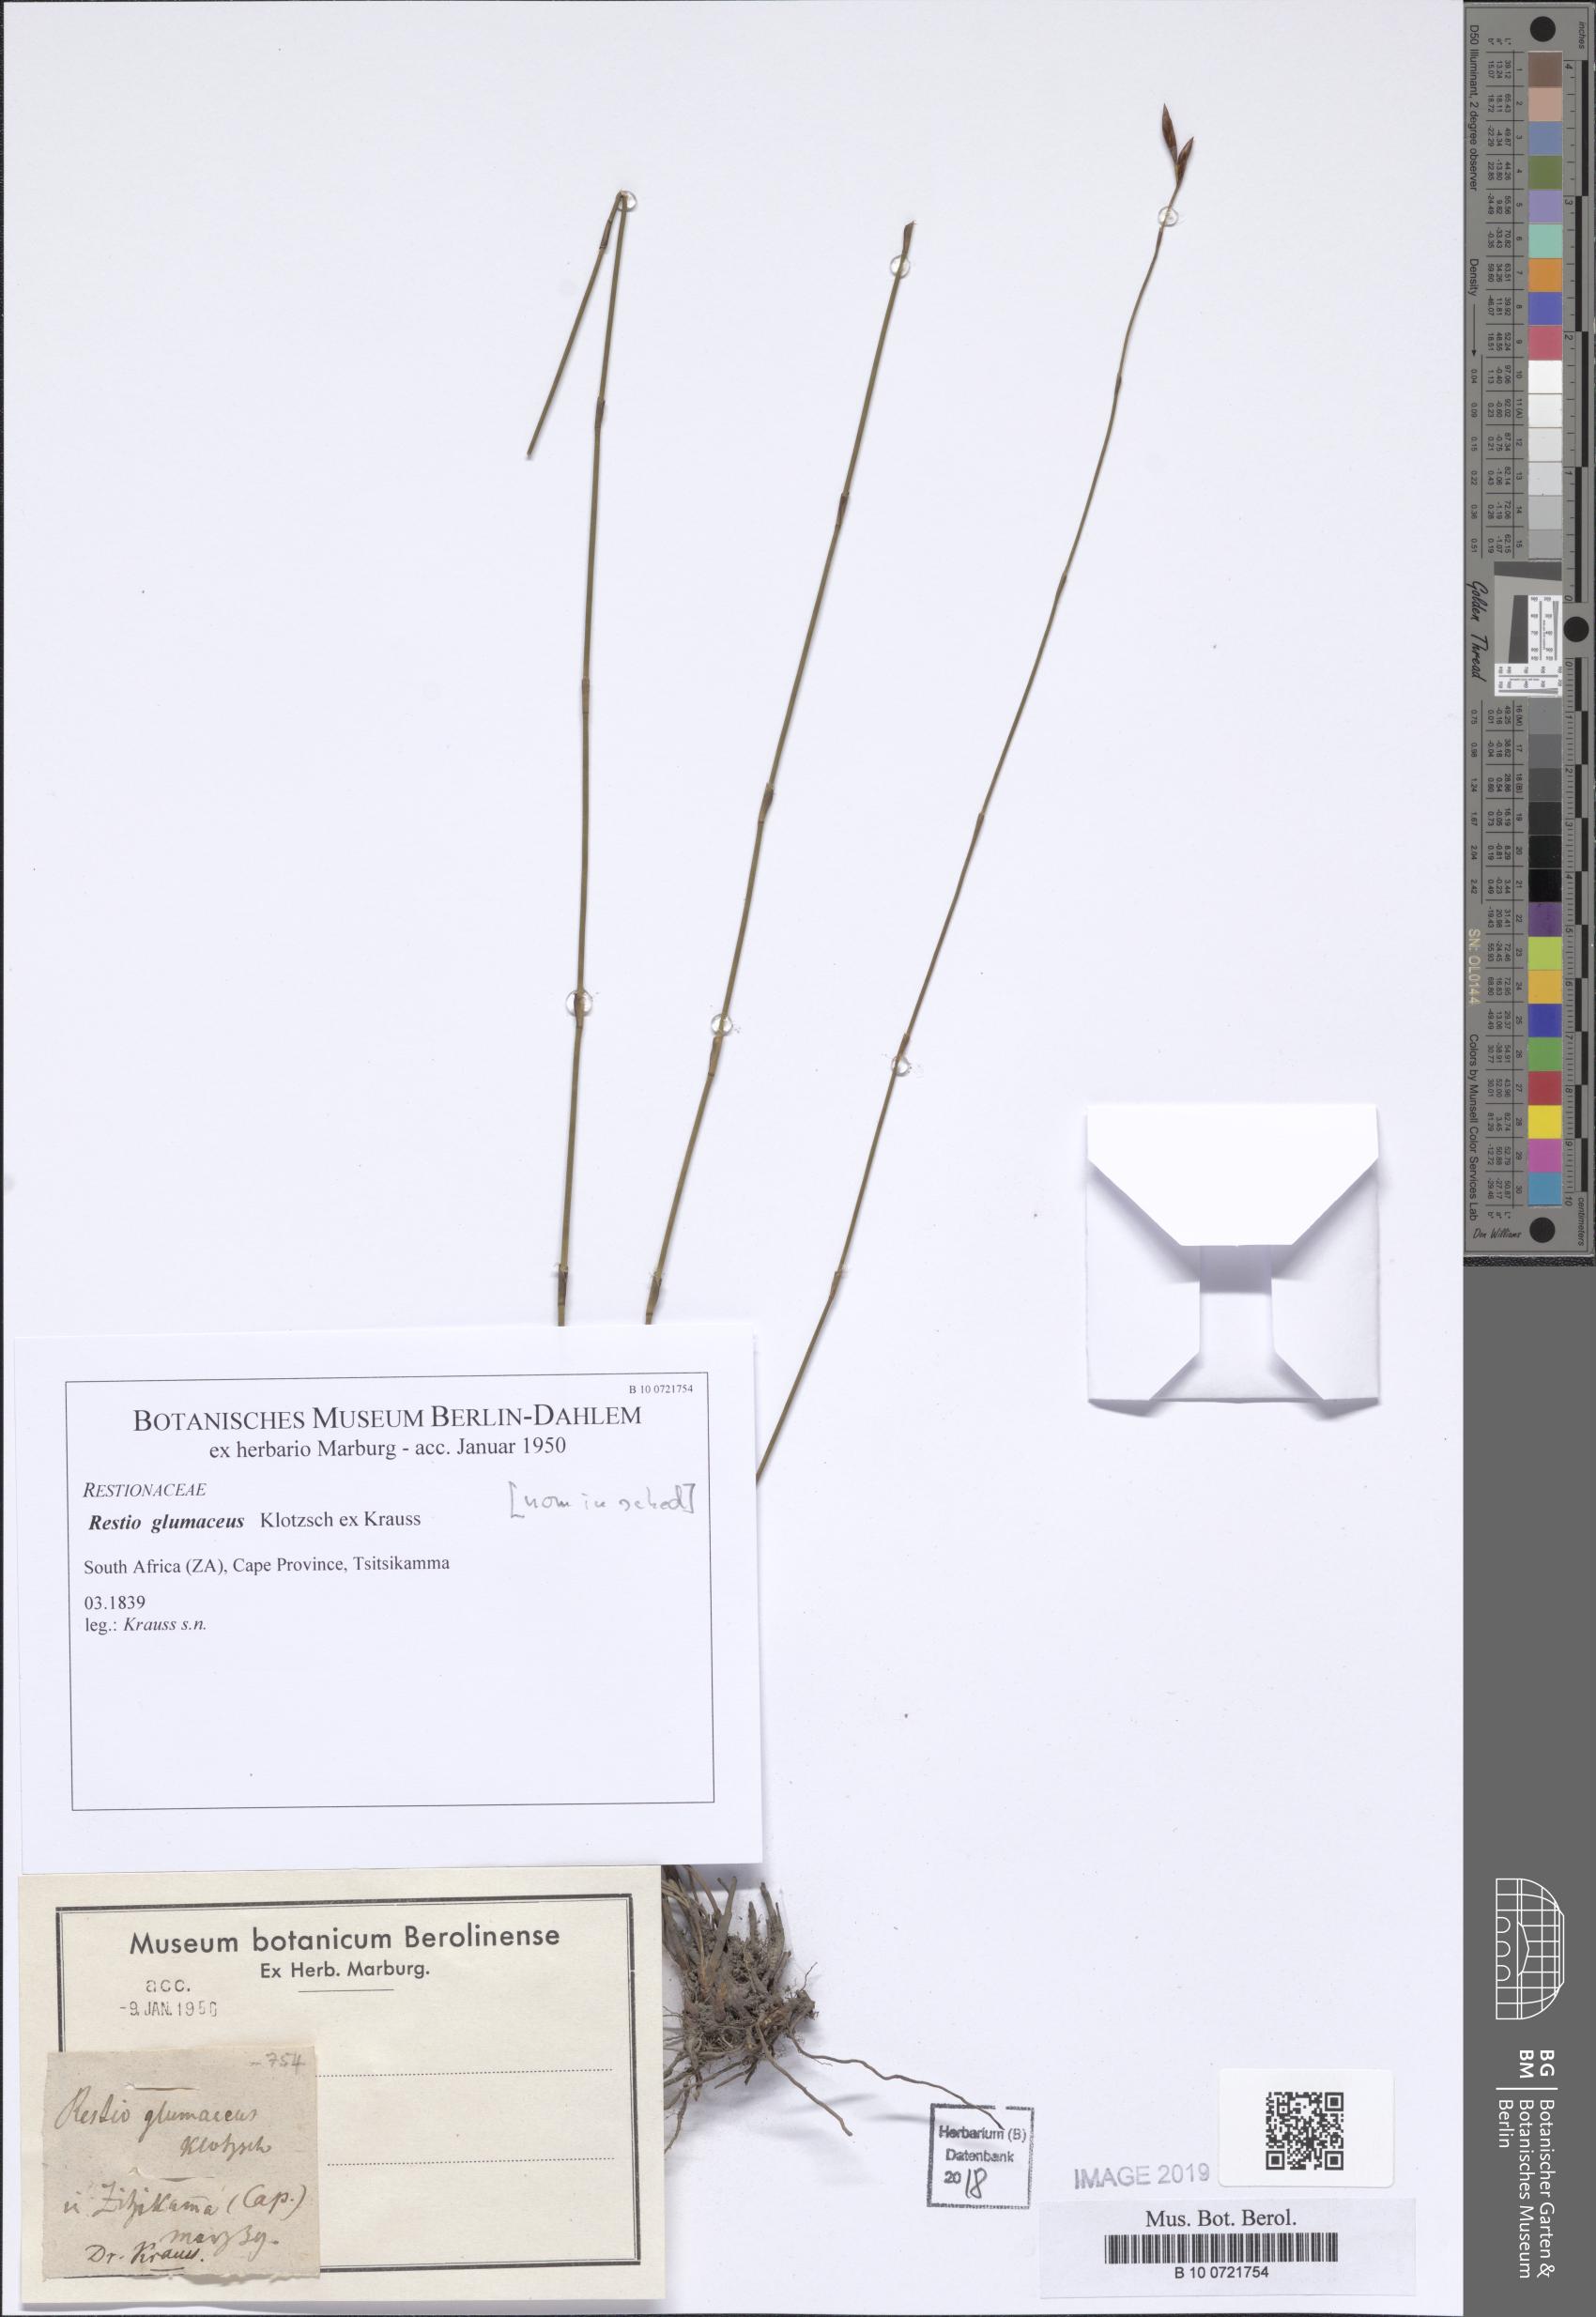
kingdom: Plantae
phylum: Tracheophyta
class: Liliopsida
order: Poales
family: Restionaceae
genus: Restio
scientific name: Restio triticeus
